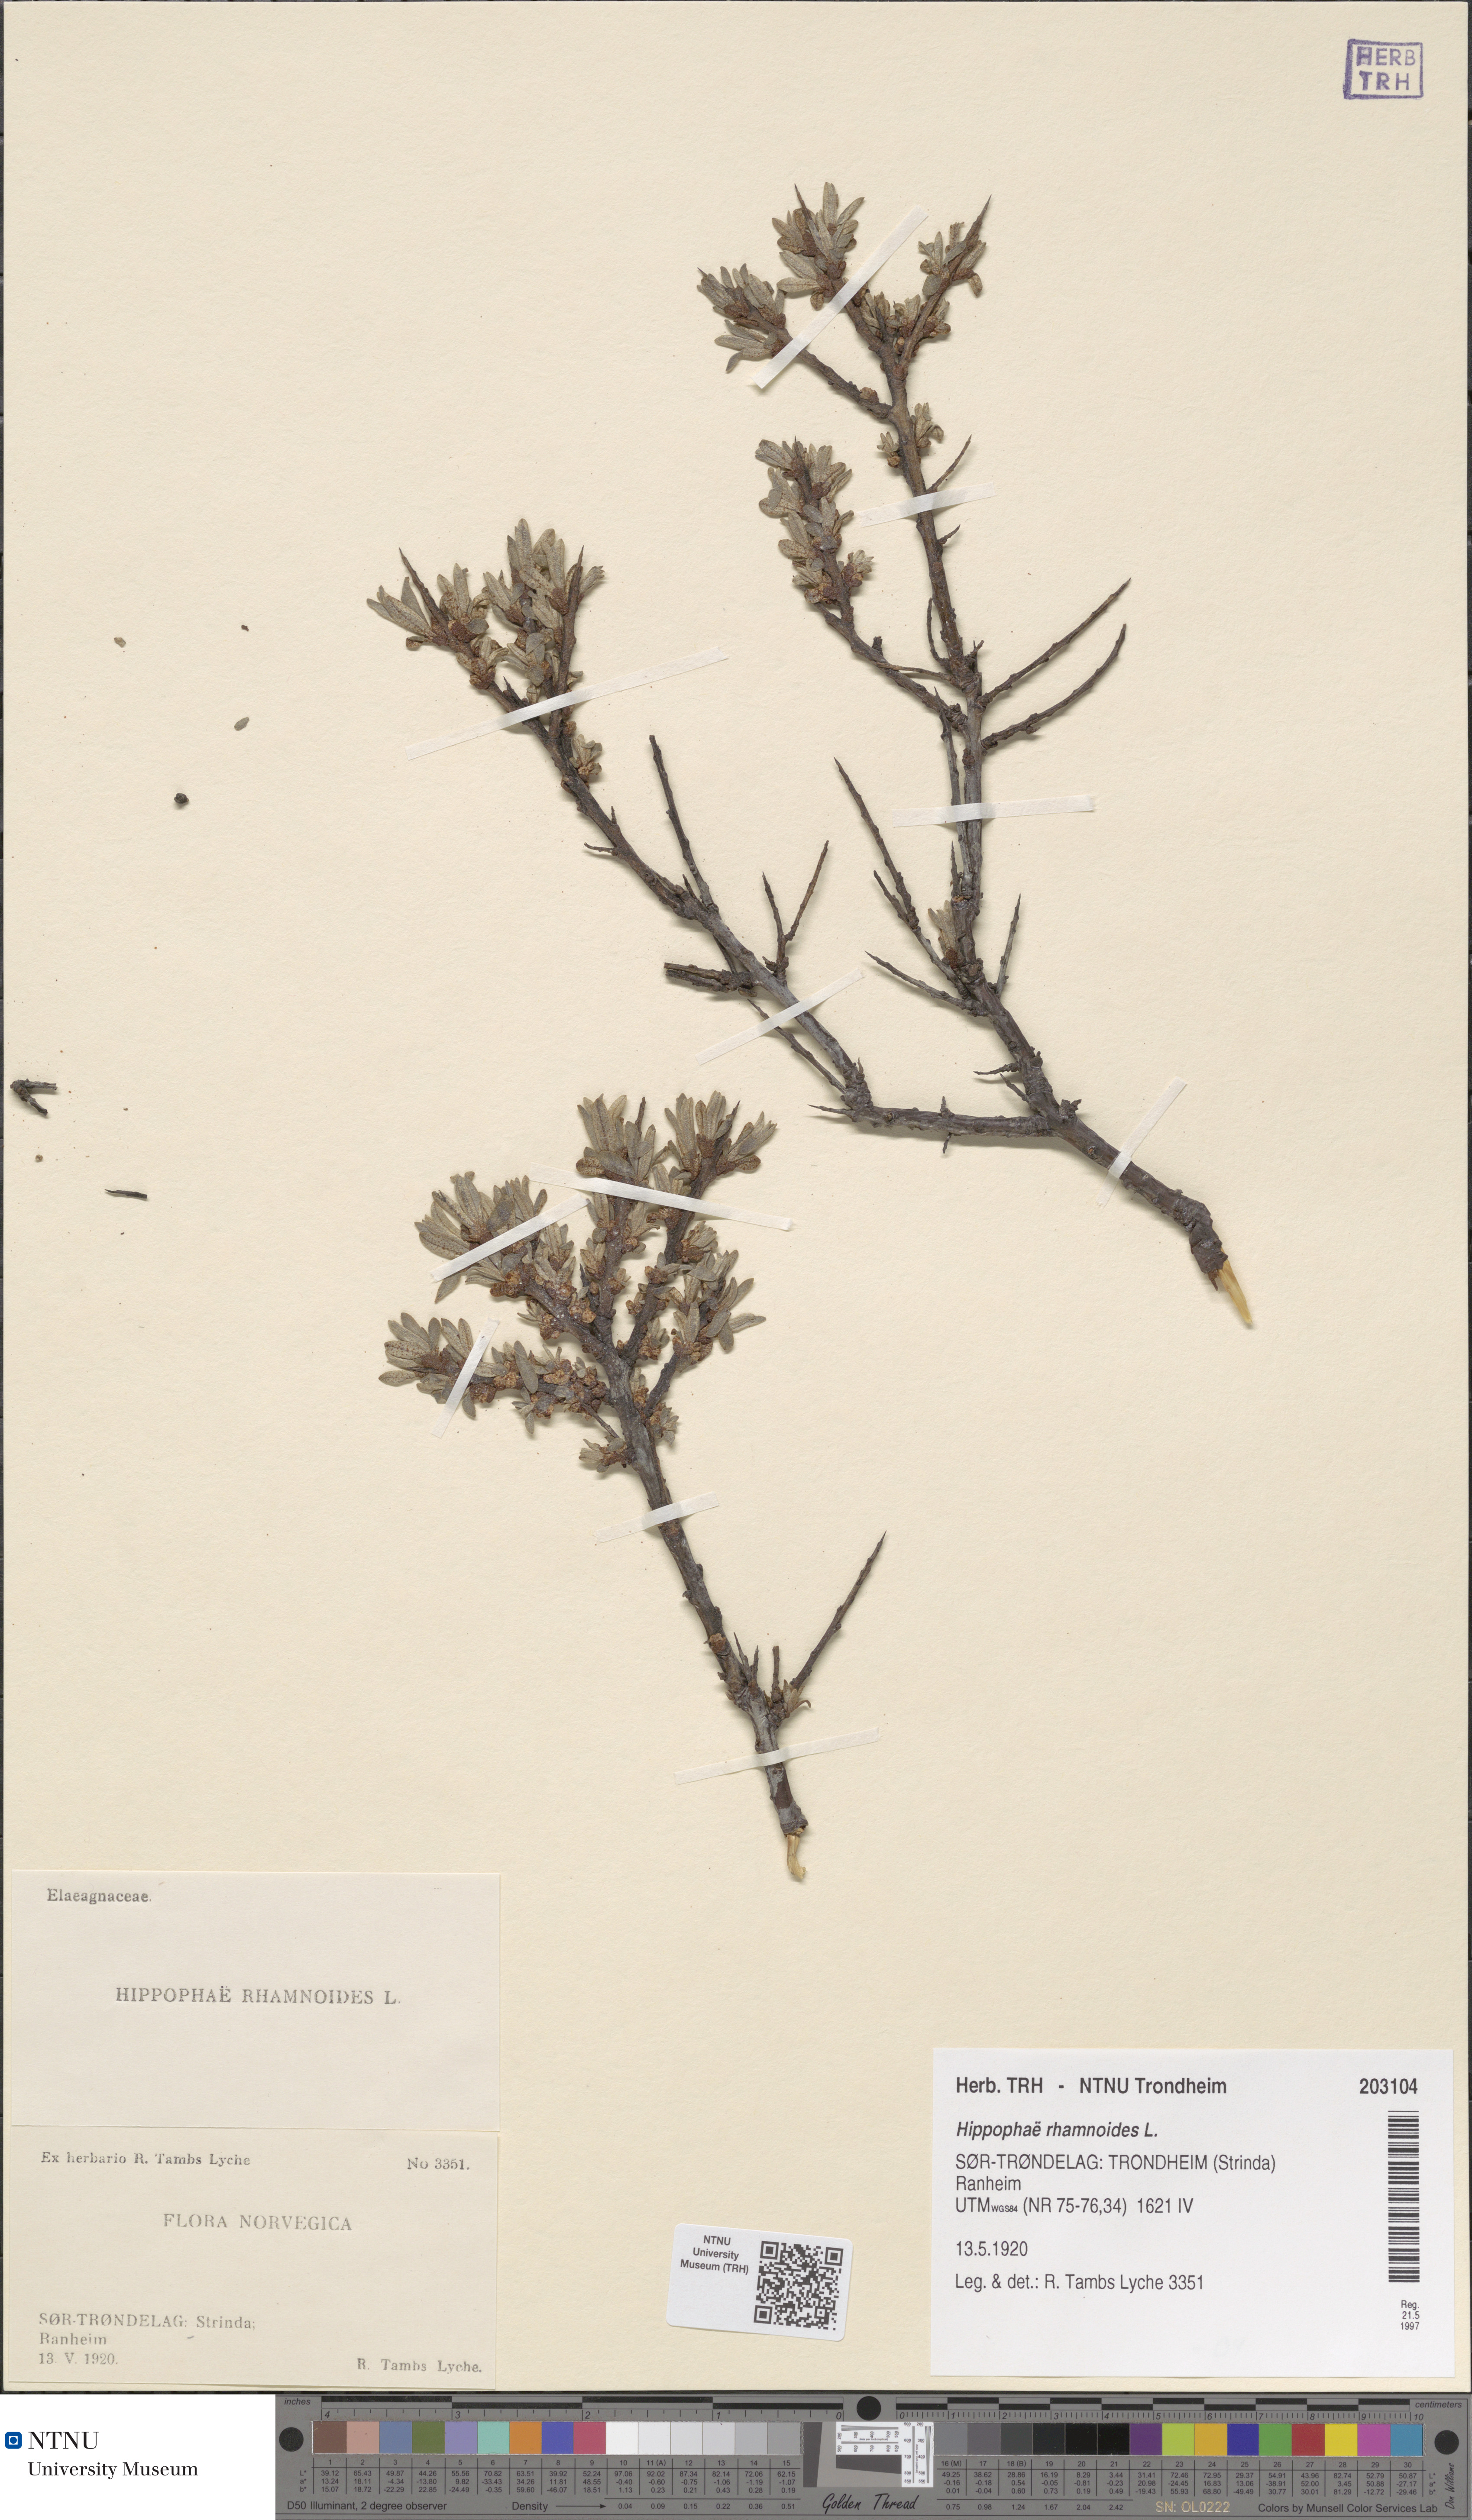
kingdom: Plantae
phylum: Tracheophyta
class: Magnoliopsida
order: Rosales
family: Elaeagnaceae
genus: Hippophae
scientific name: Hippophae rhamnoides
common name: Sea-buckthorn
